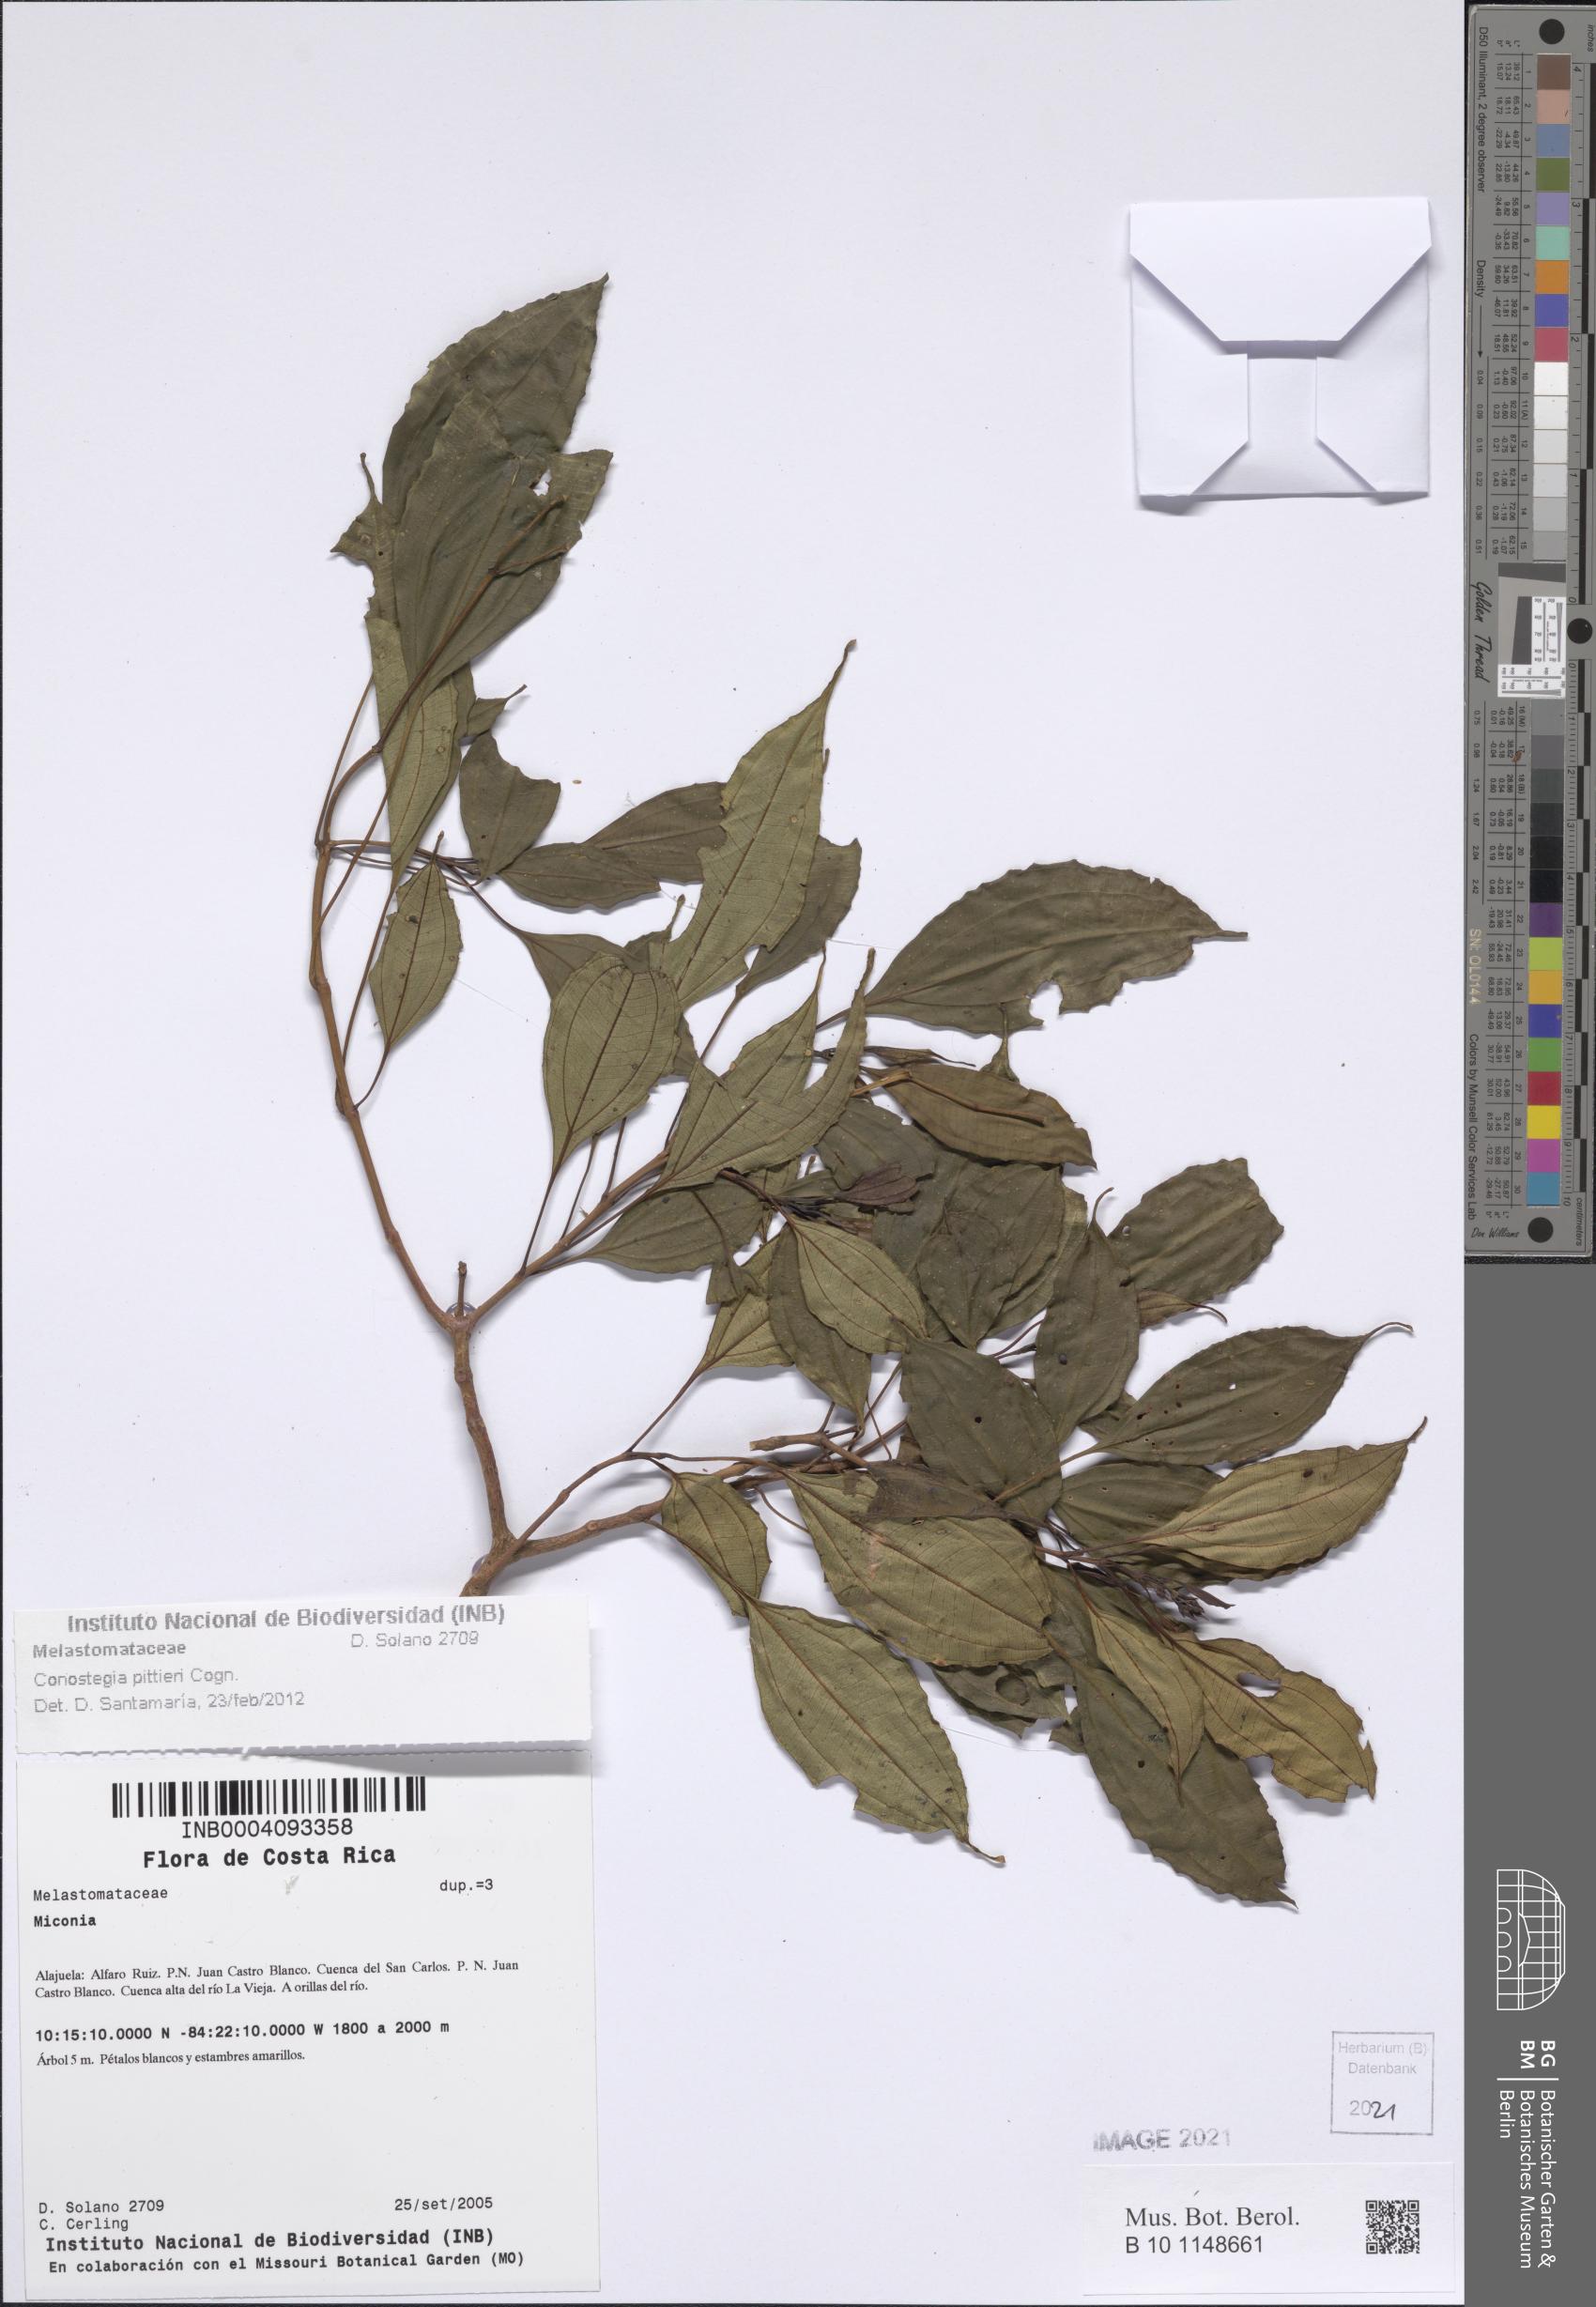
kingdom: Plantae
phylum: Tracheophyta
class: Magnoliopsida
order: Myrtales
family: Melastomataceae
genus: Miconia
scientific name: Miconia durandii
